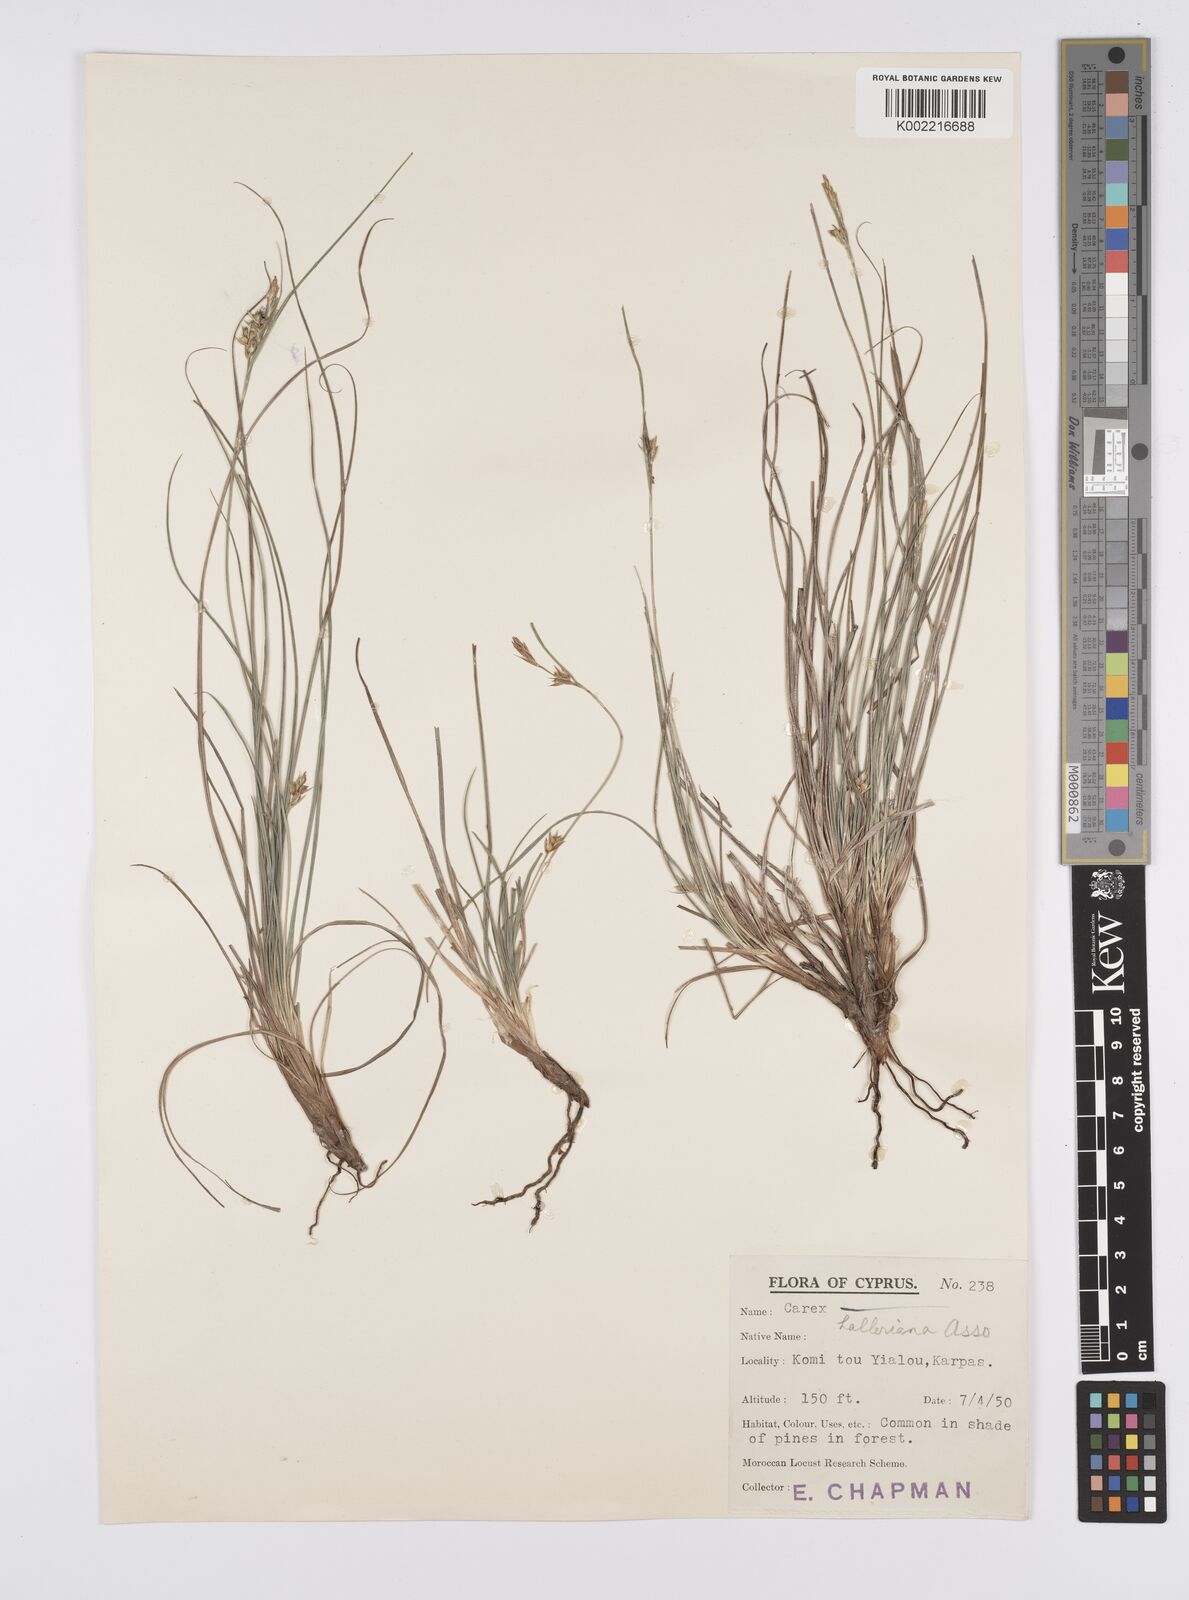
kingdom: Plantae
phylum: Tracheophyta
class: Liliopsida
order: Poales
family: Cyperaceae
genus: Carex
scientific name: Carex halleriana
